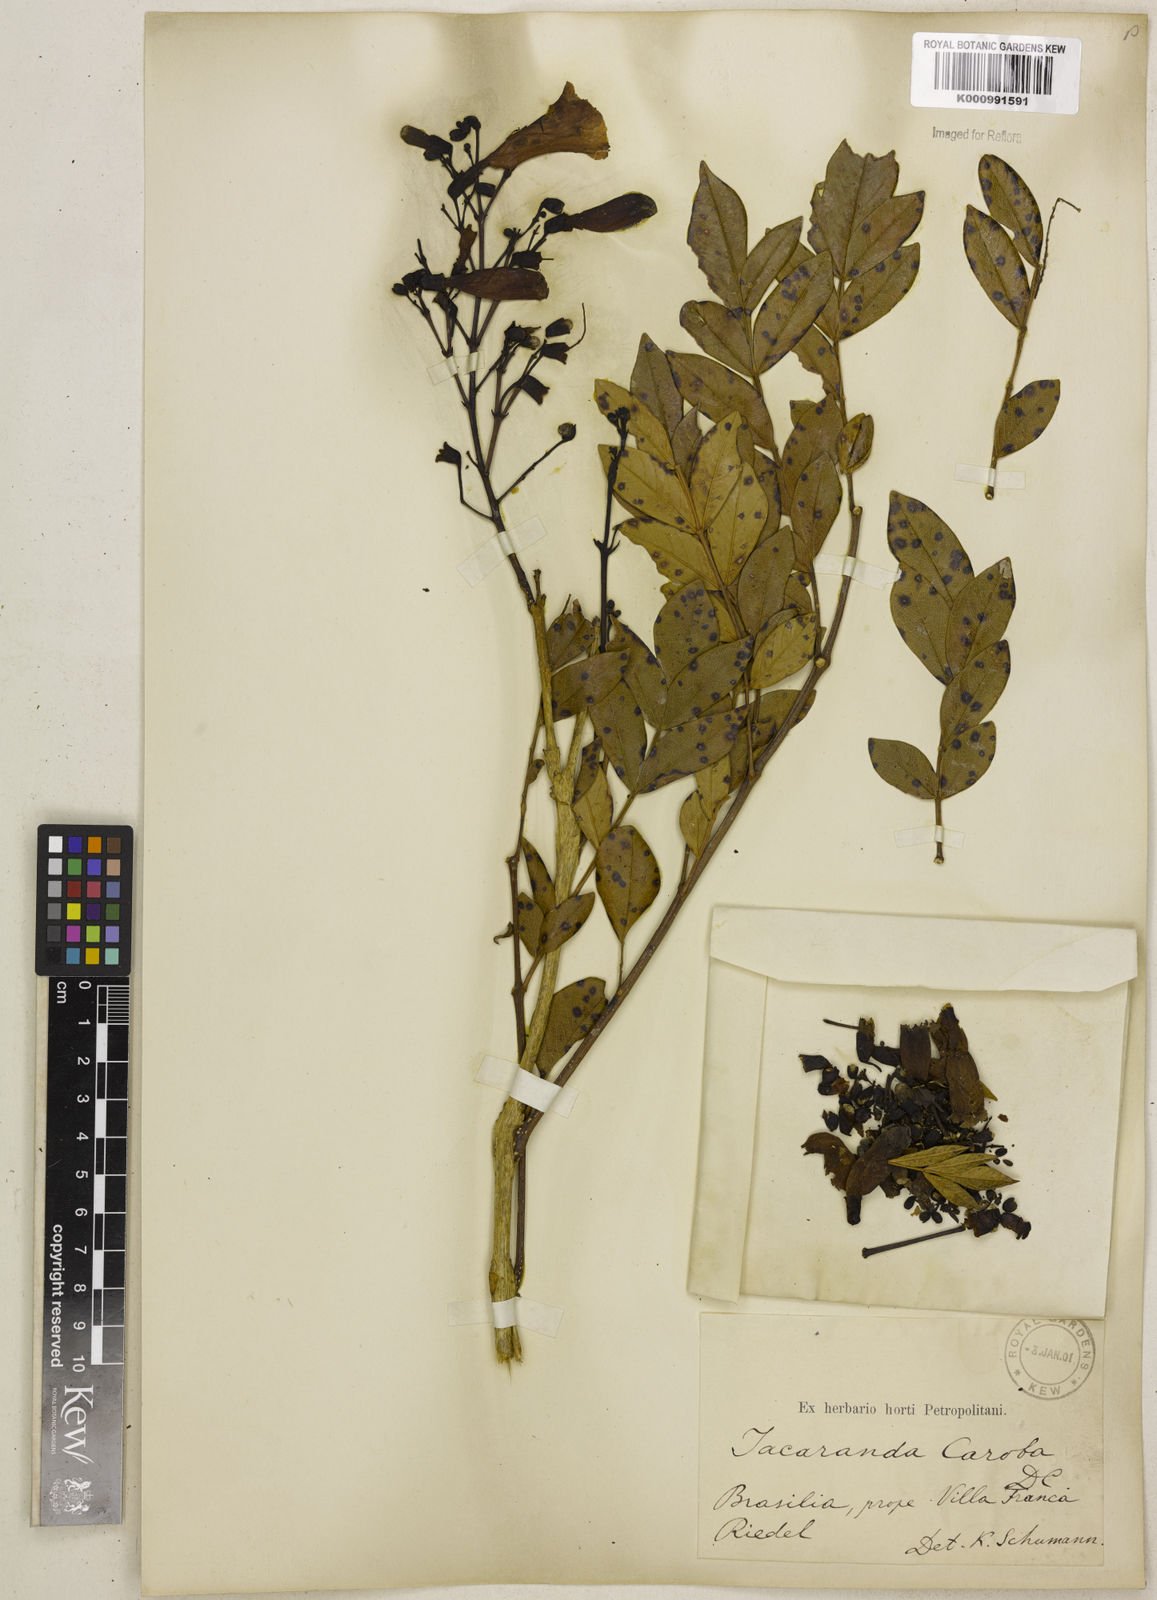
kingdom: Plantae
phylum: Tracheophyta
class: Magnoliopsida
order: Lamiales
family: Bignoniaceae
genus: Jacaranda
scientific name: Jacaranda caroba
